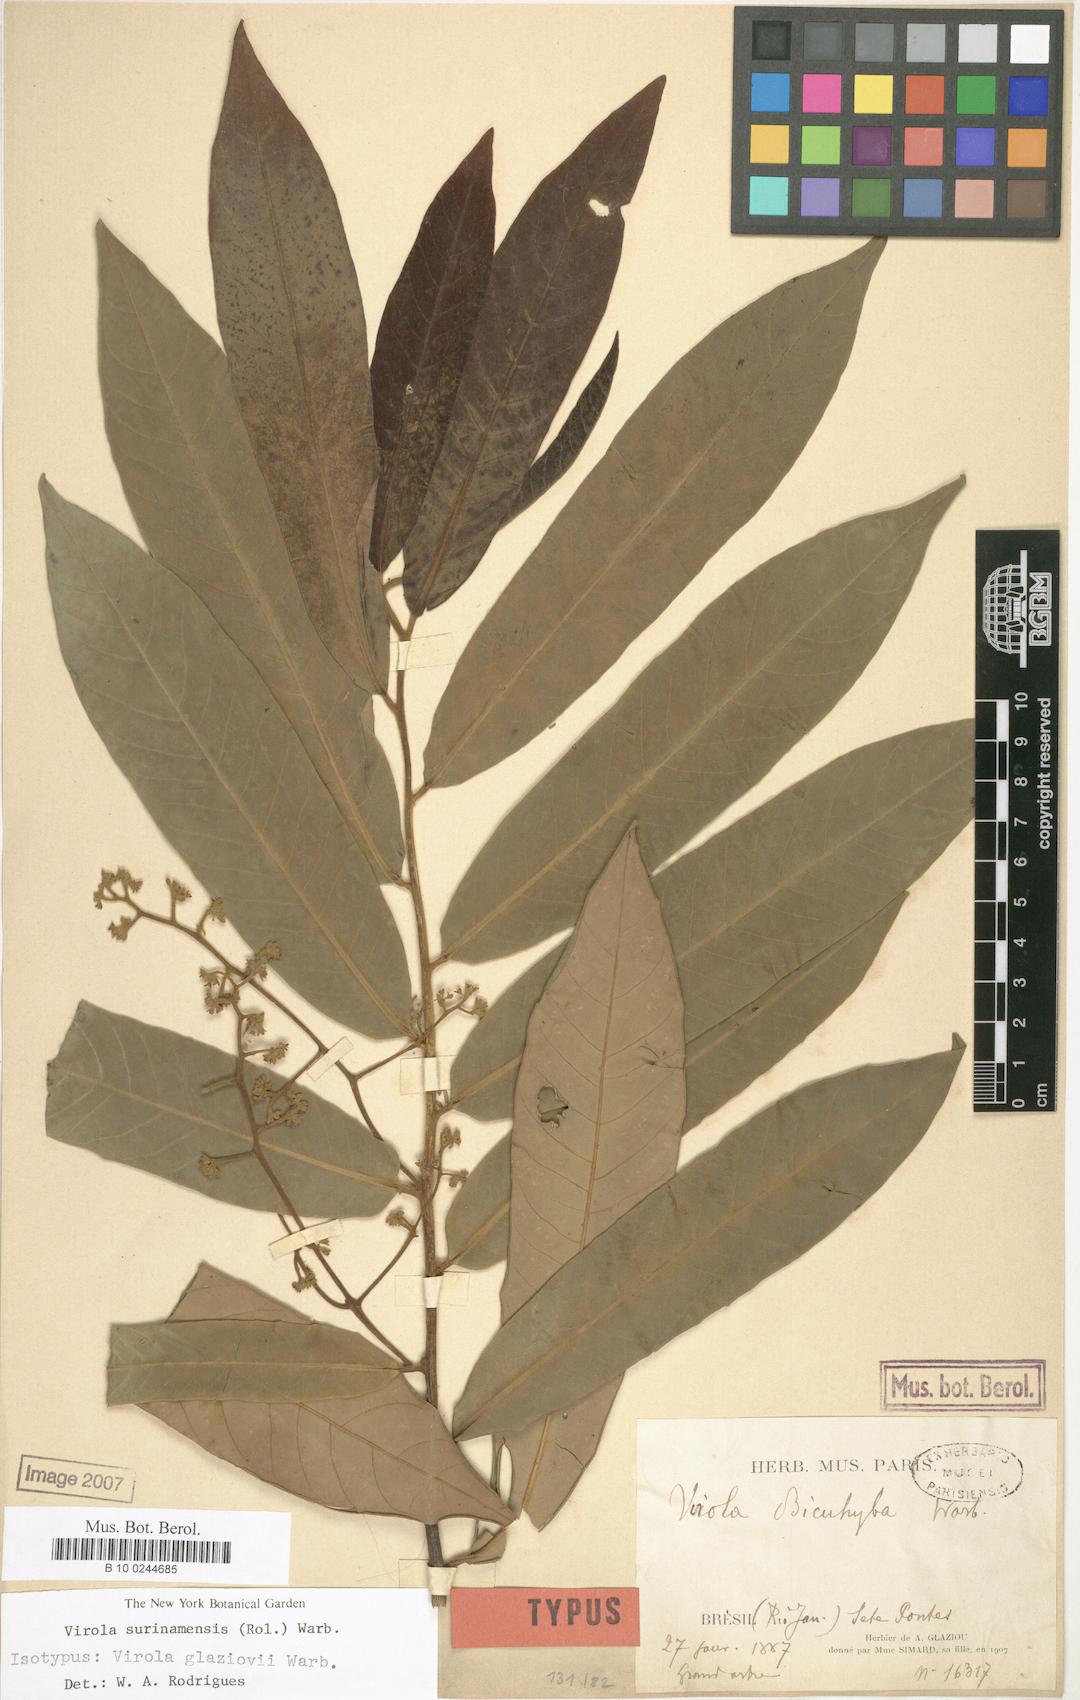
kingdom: Plantae
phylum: Tracheophyta
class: Magnoliopsida
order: Magnoliales
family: Myristicaceae
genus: Virola
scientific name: Virola surinamensis
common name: Baboonwood
